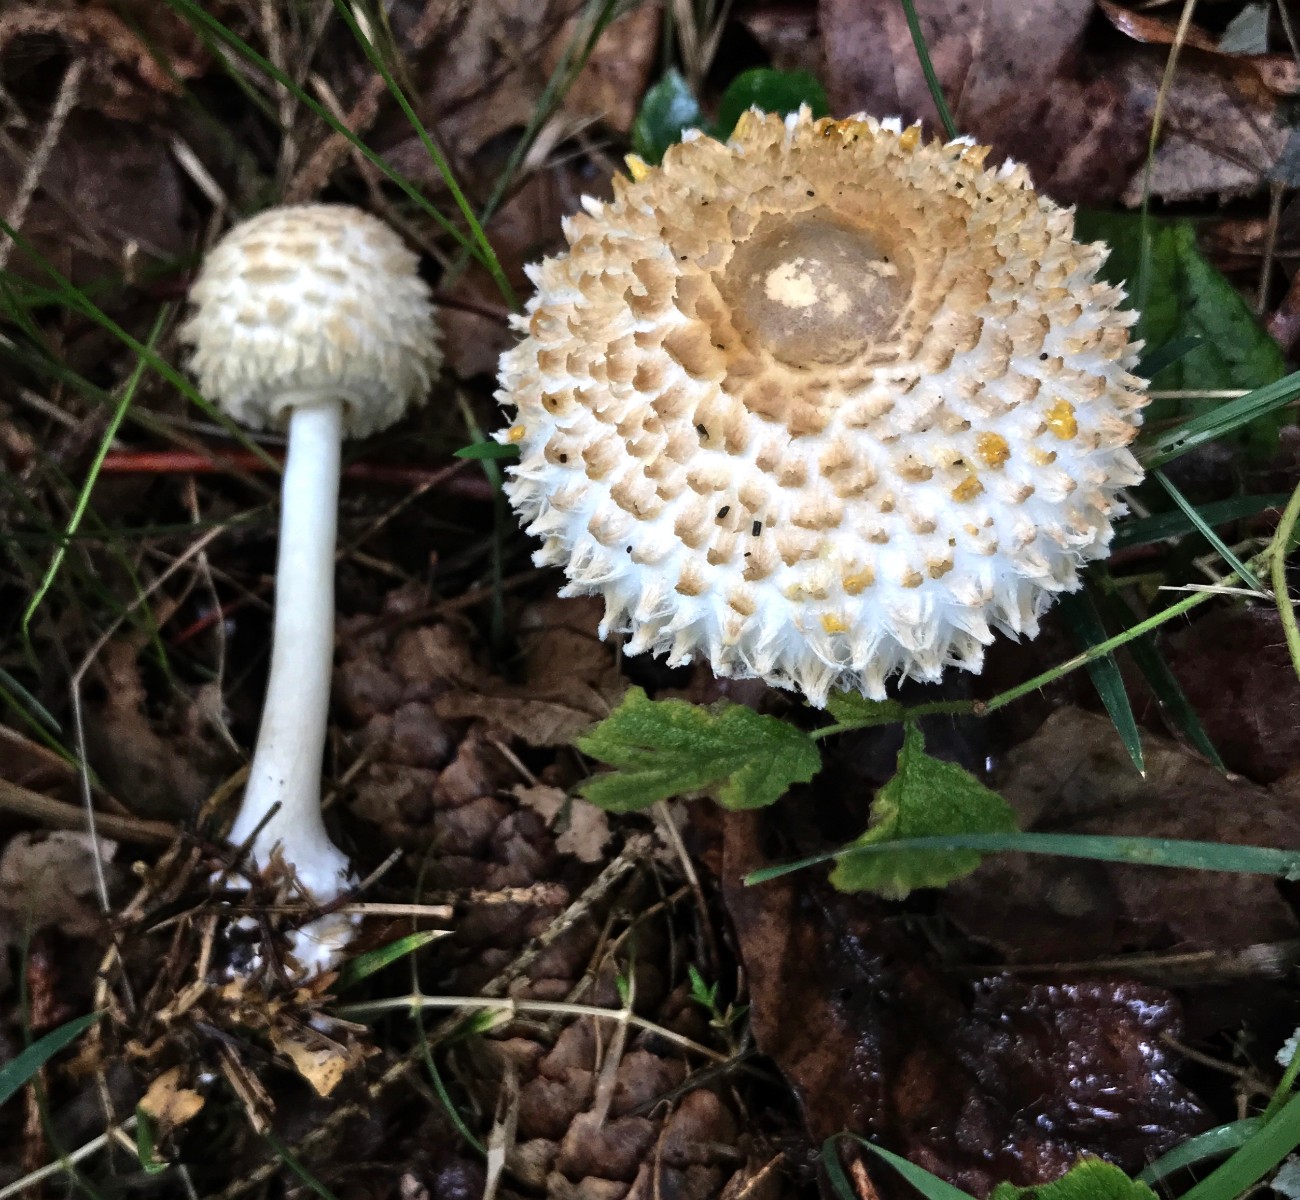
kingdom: Fungi
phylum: Basidiomycota
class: Agaricomycetes
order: Agaricales
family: Agaricaceae
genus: Leucoagaricus
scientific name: Leucoagaricus nympharum
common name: gran-silkehat
